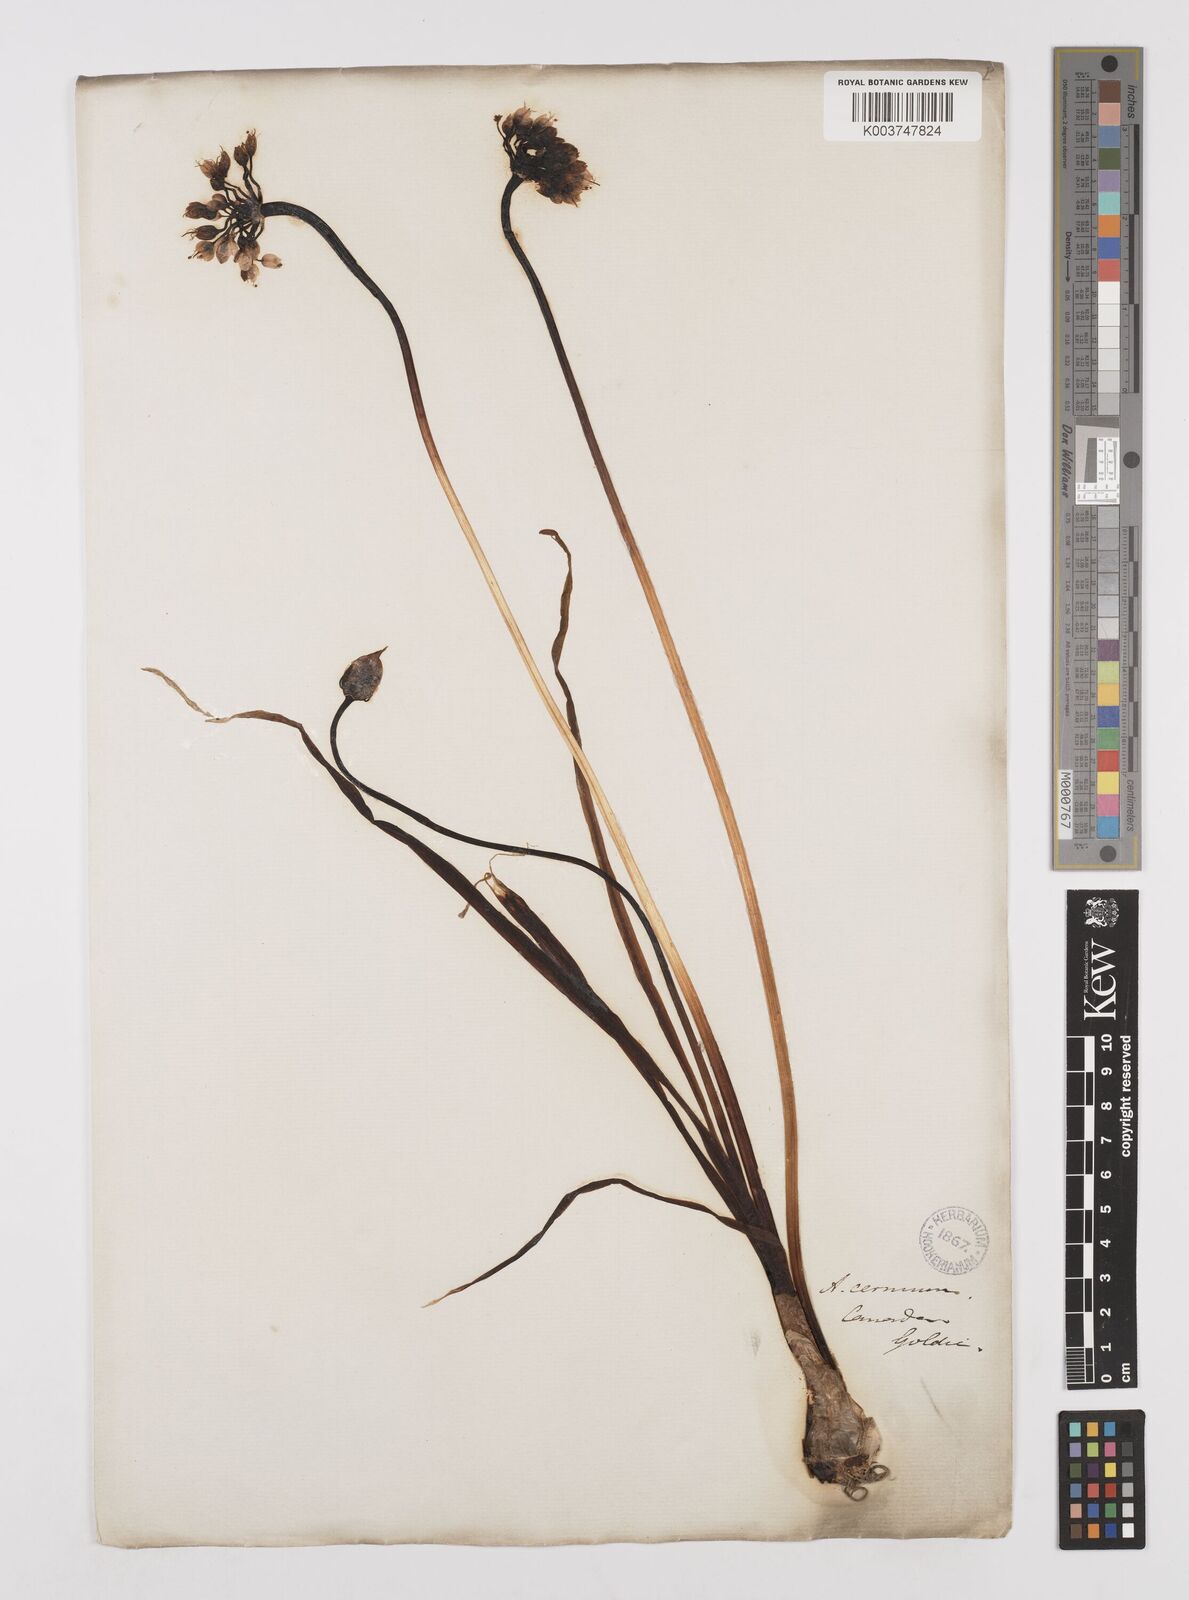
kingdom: Plantae
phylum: Tracheophyta
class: Liliopsida
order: Asparagales
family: Amaryllidaceae
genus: Allium
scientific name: Allium cernuum
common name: Nodding onion
